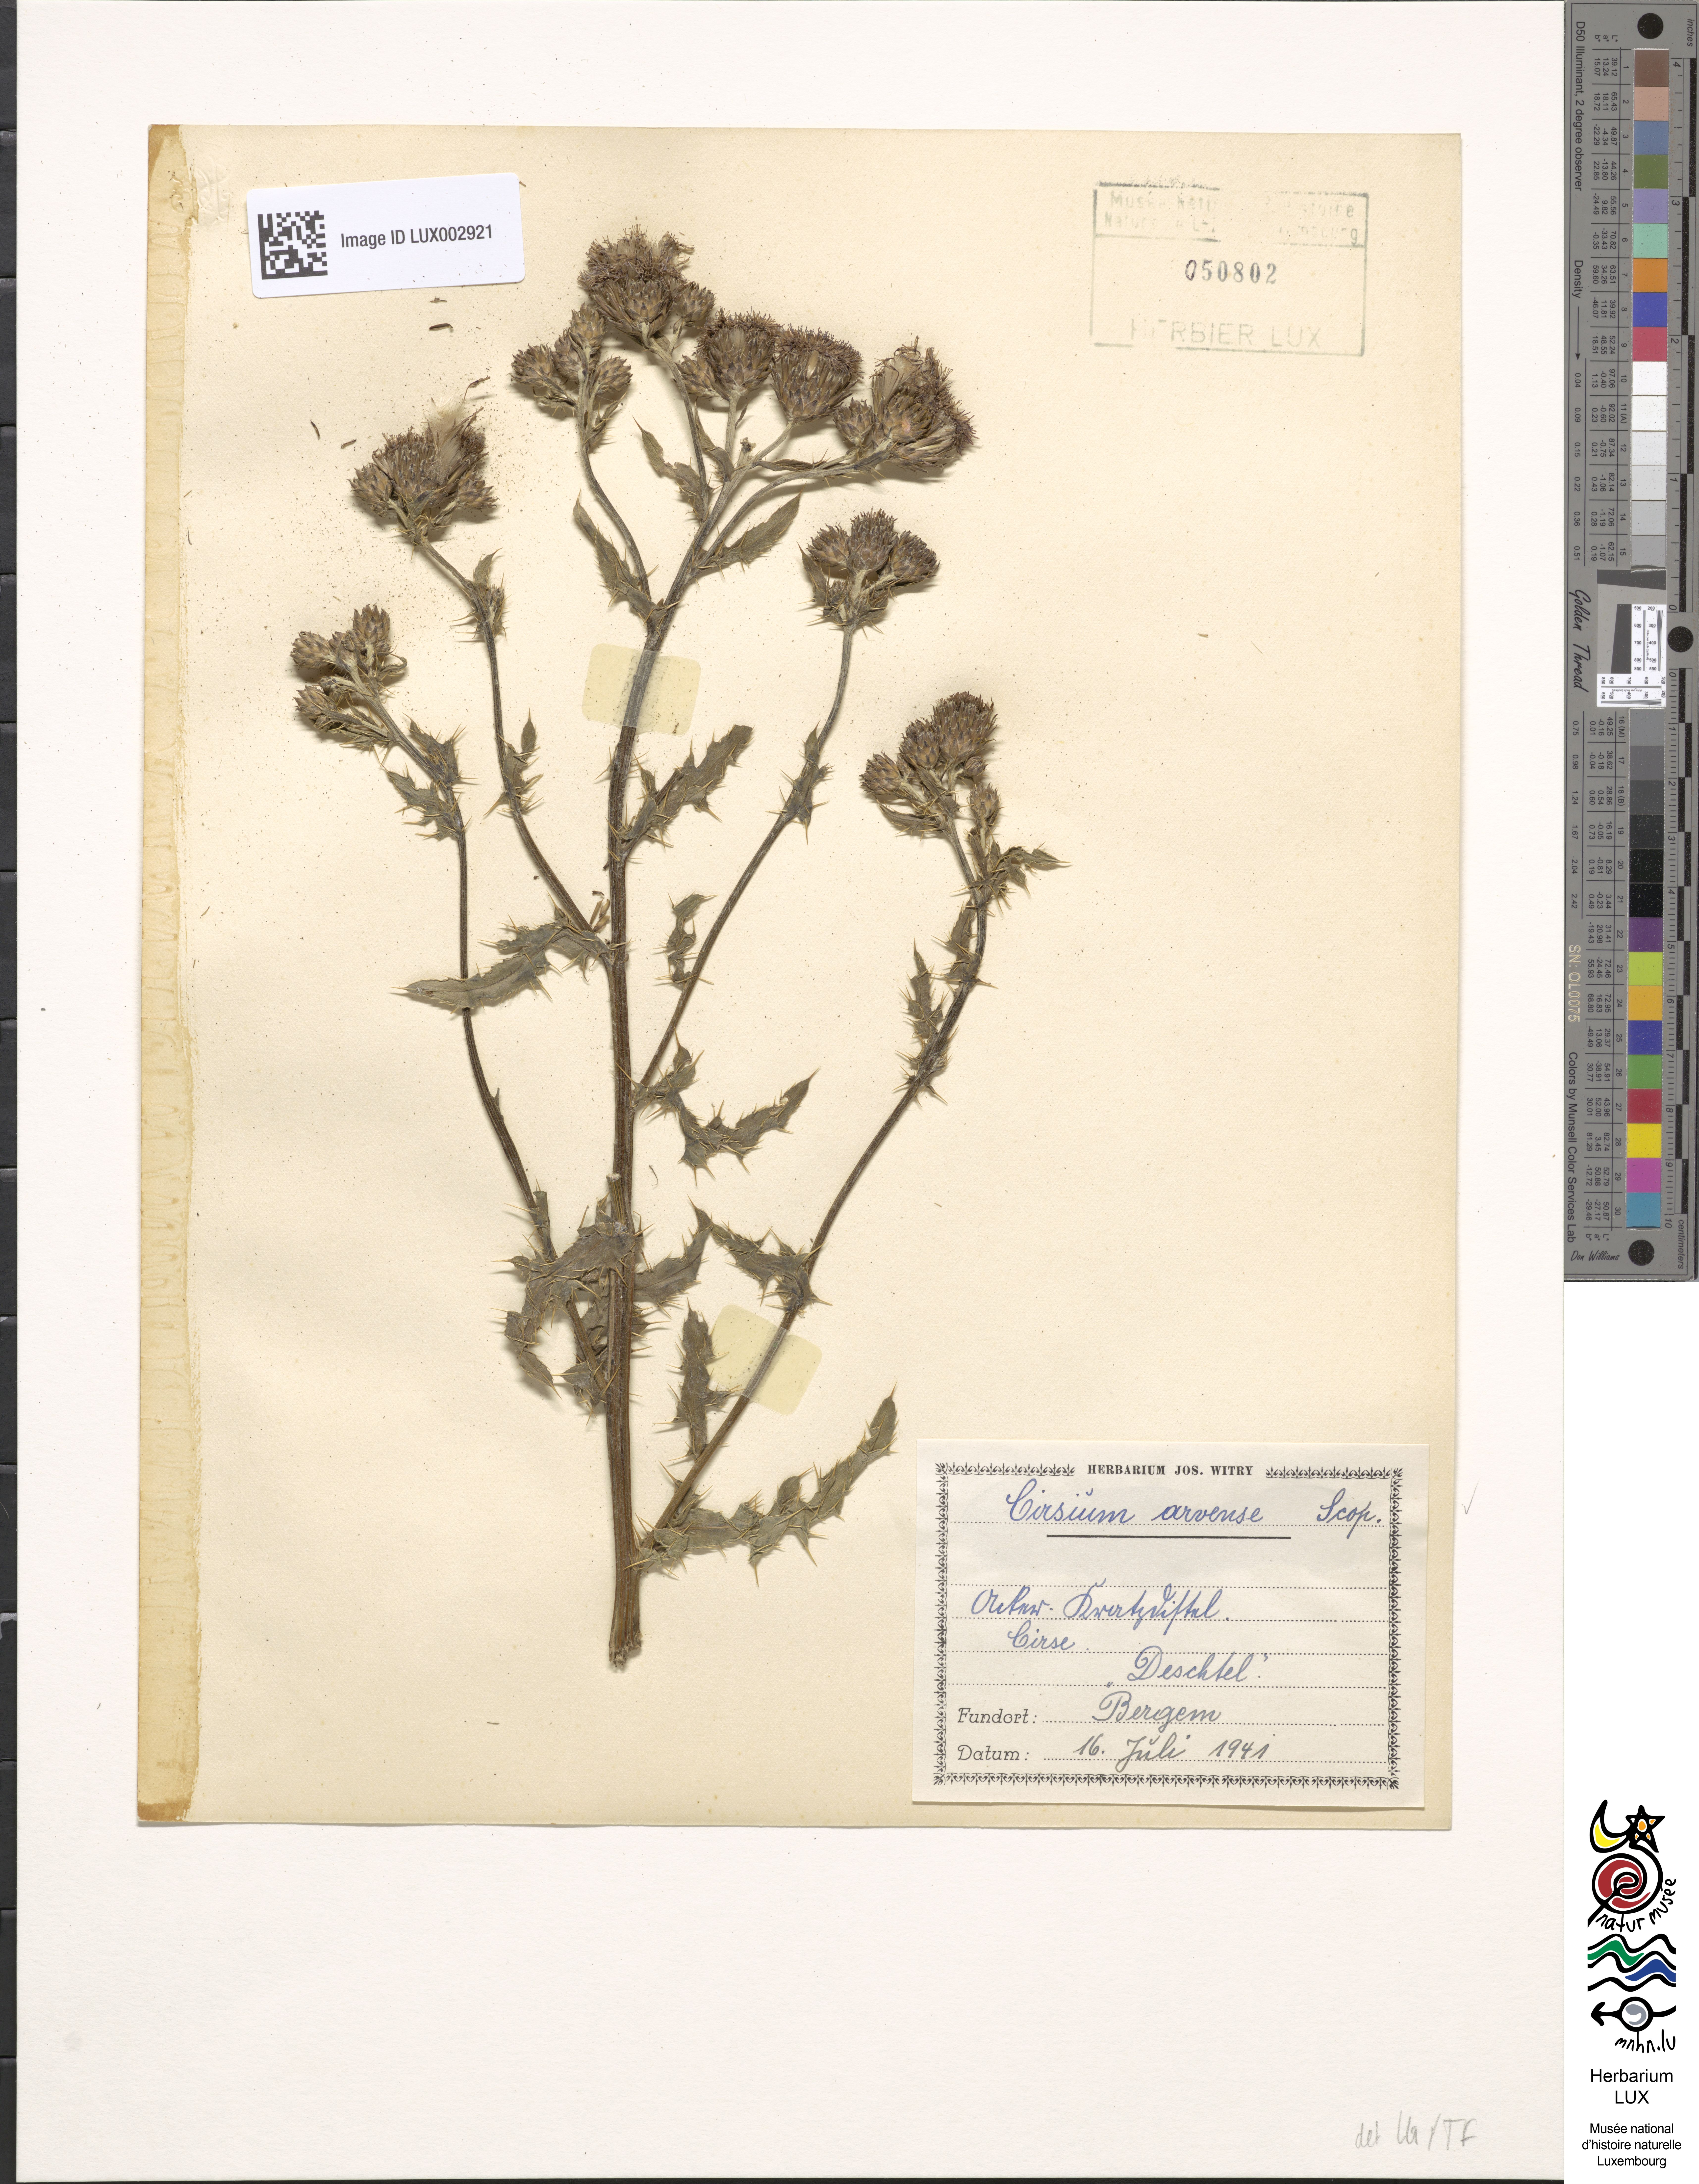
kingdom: Plantae
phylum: Tracheophyta
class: Magnoliopsida
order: Asterales
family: Asteraceae
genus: Cirsium
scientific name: Cirsium arvense
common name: Creeping thistle
